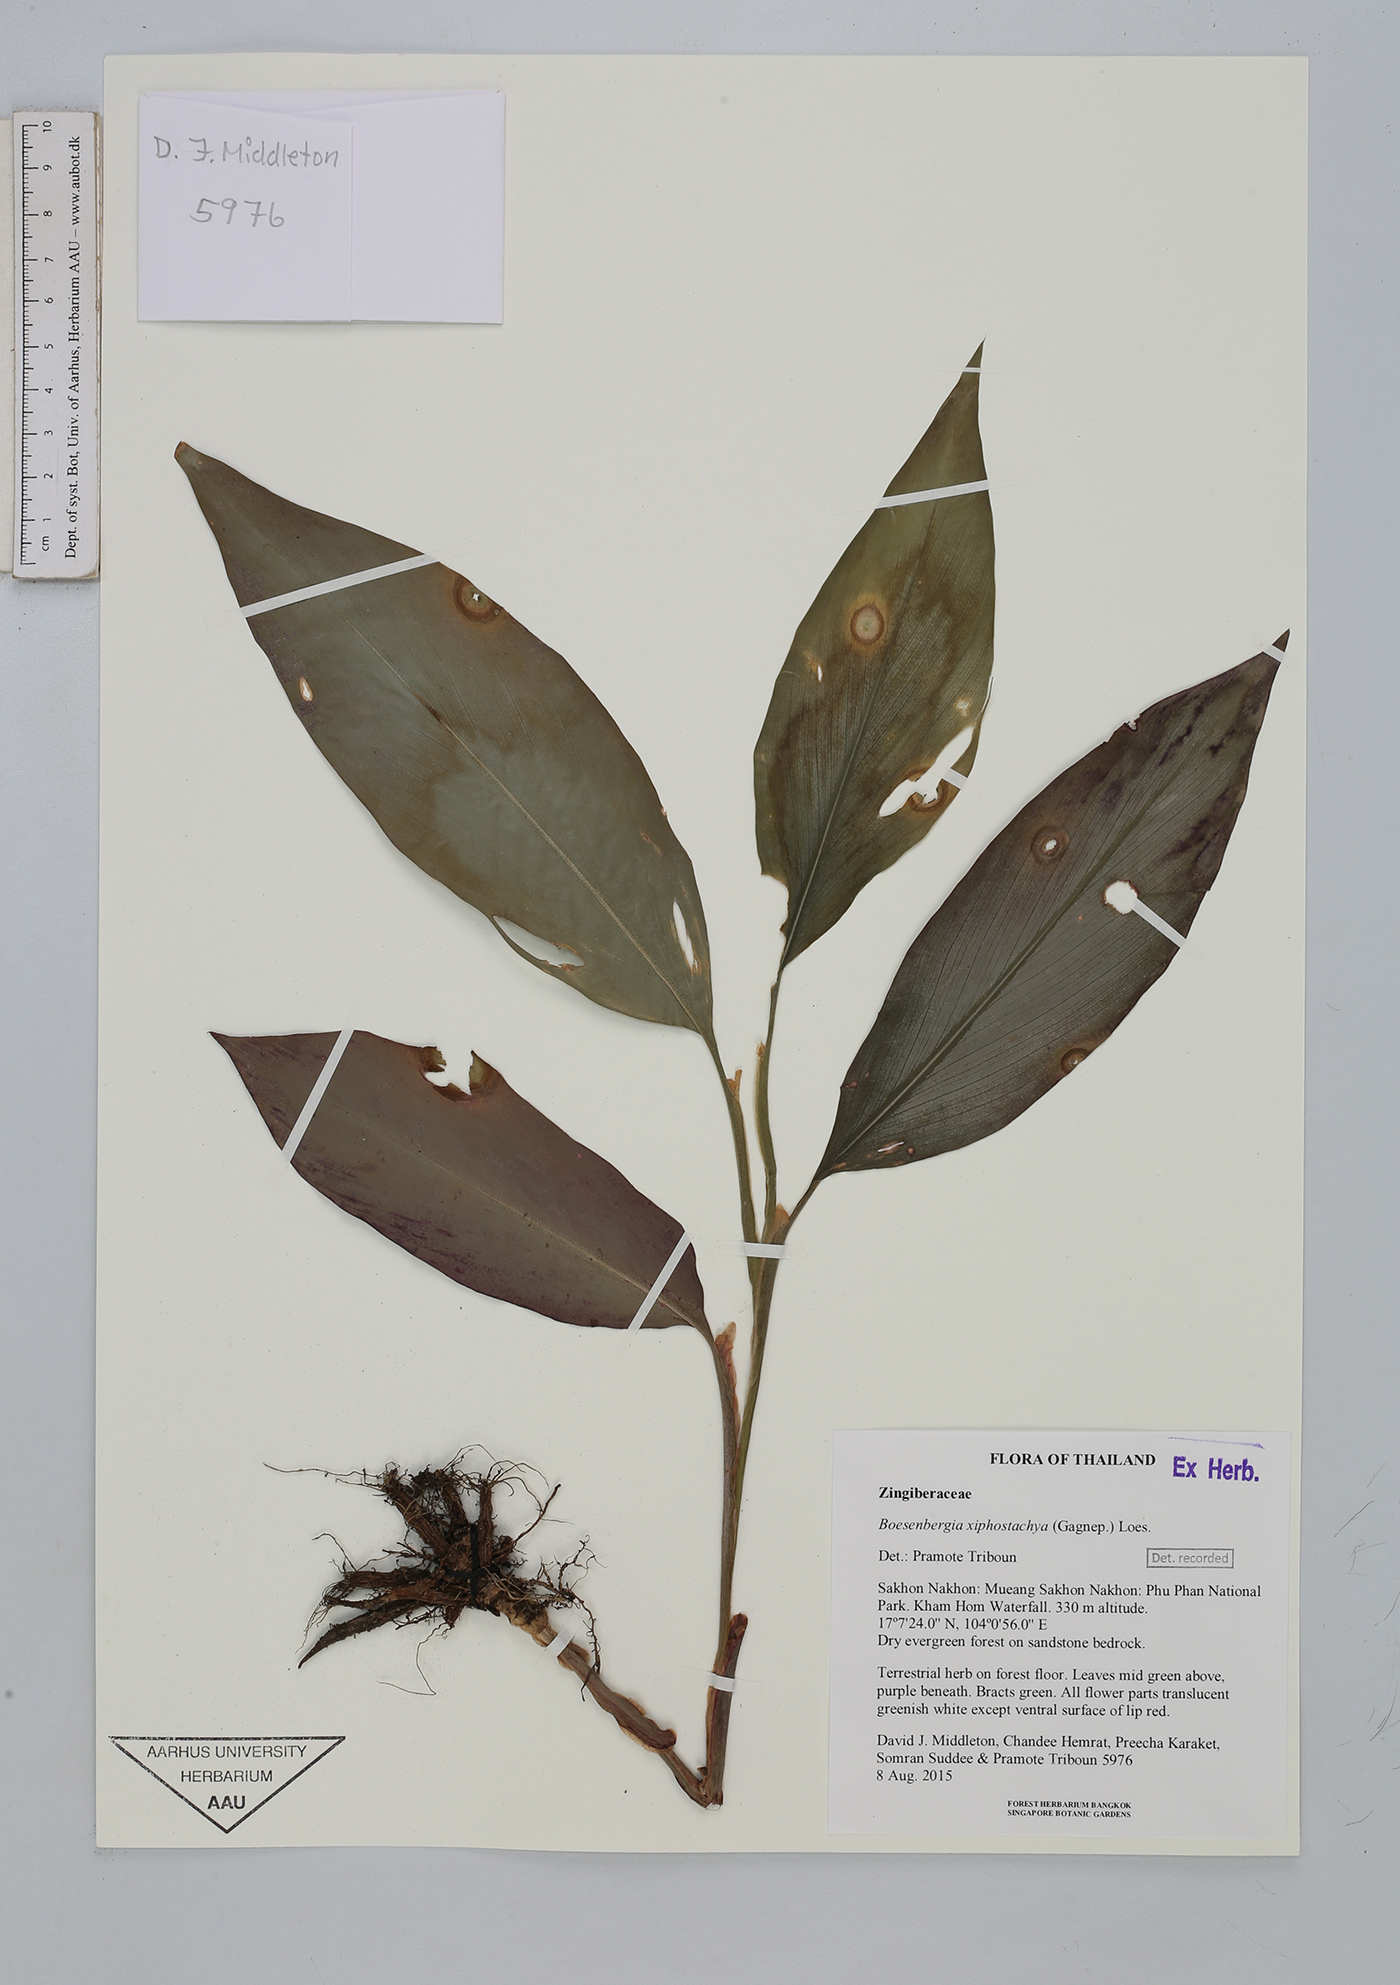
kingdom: Plantae
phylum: Tracheophyta
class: Liliopsida
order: Zingiberales
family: Zingiberaceae
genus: Boesenbergia
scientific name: Boesenbergia xiphostachya
